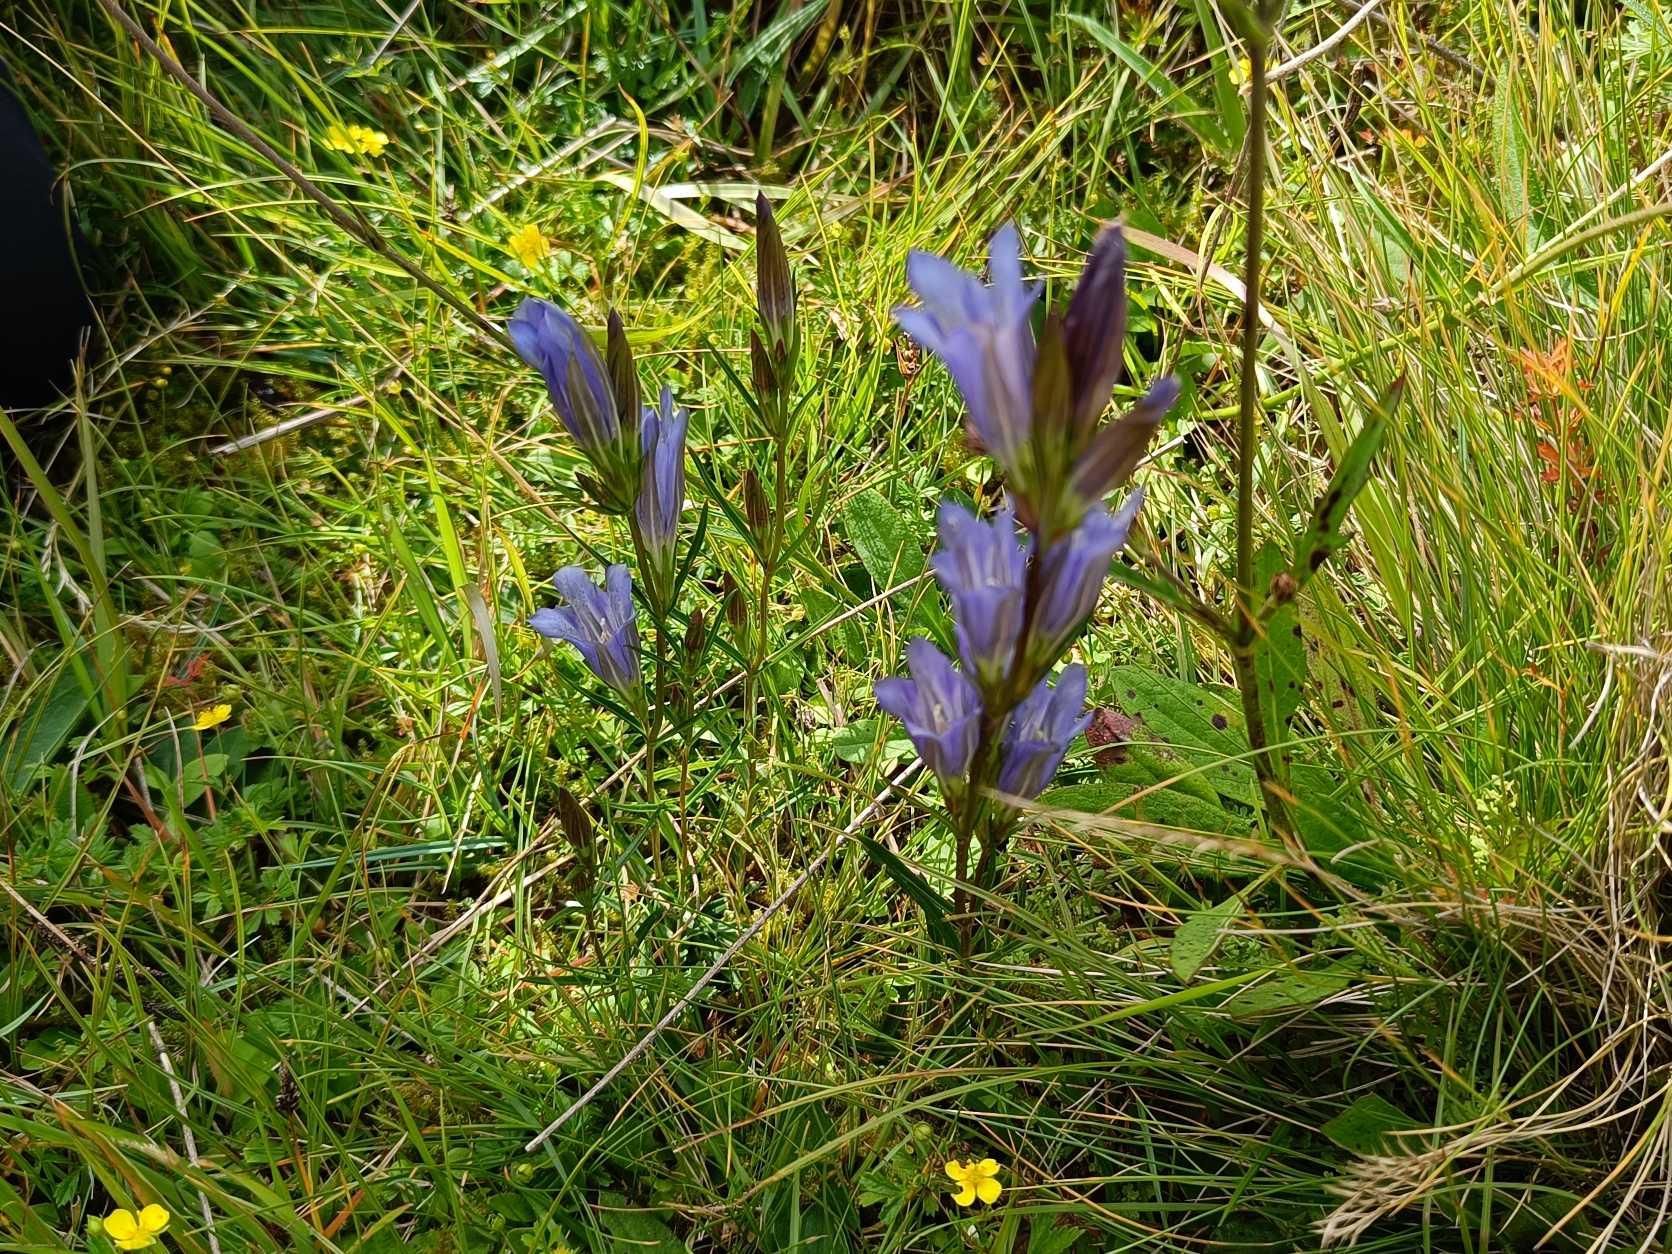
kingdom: Plantae
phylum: Tracheophyta
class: Magnoliopsida
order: Gentianales
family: Gentianaceae
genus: Gentiana
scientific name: Gentiana pneumonanthe
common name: Klokke-ensian
